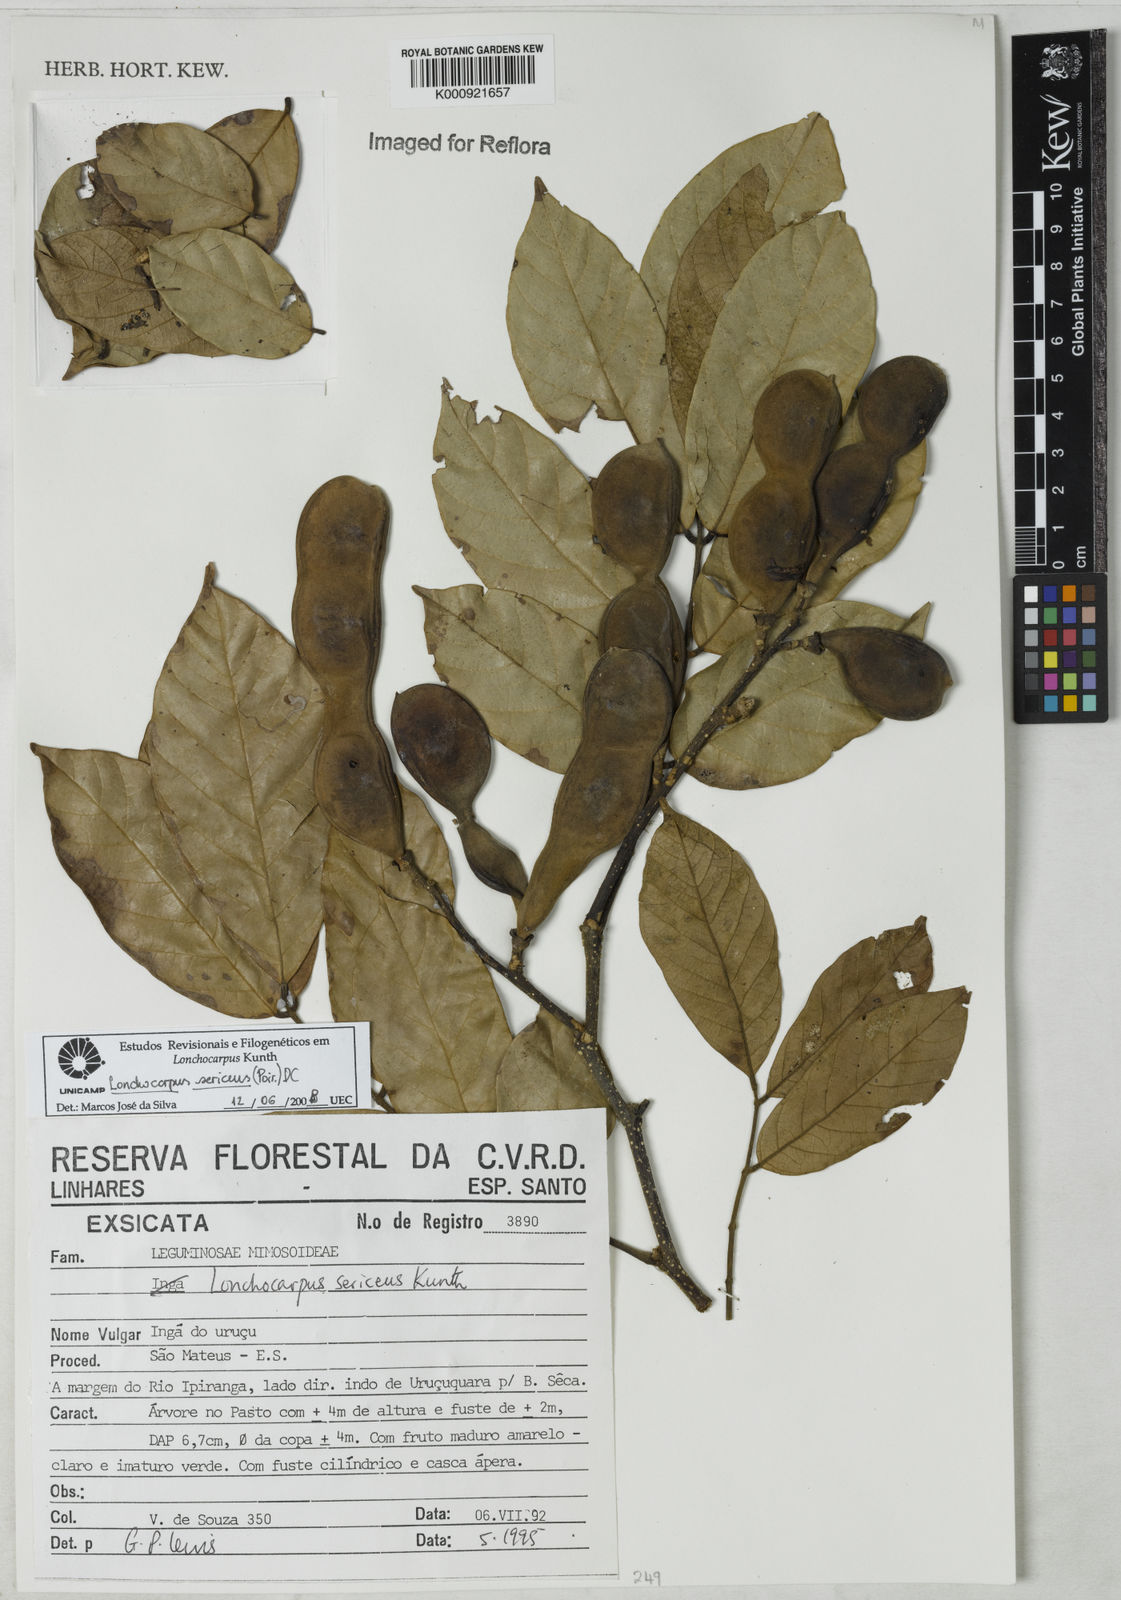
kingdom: Plantae
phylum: Tracheophyta
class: Magnoliopsida
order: Fabales
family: Fabaceae
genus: Lonchocarpus
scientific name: Lonchocarpus
